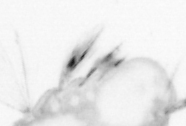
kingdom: Animalia
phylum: Annelida
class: Polychaeta
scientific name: Polychaeta
